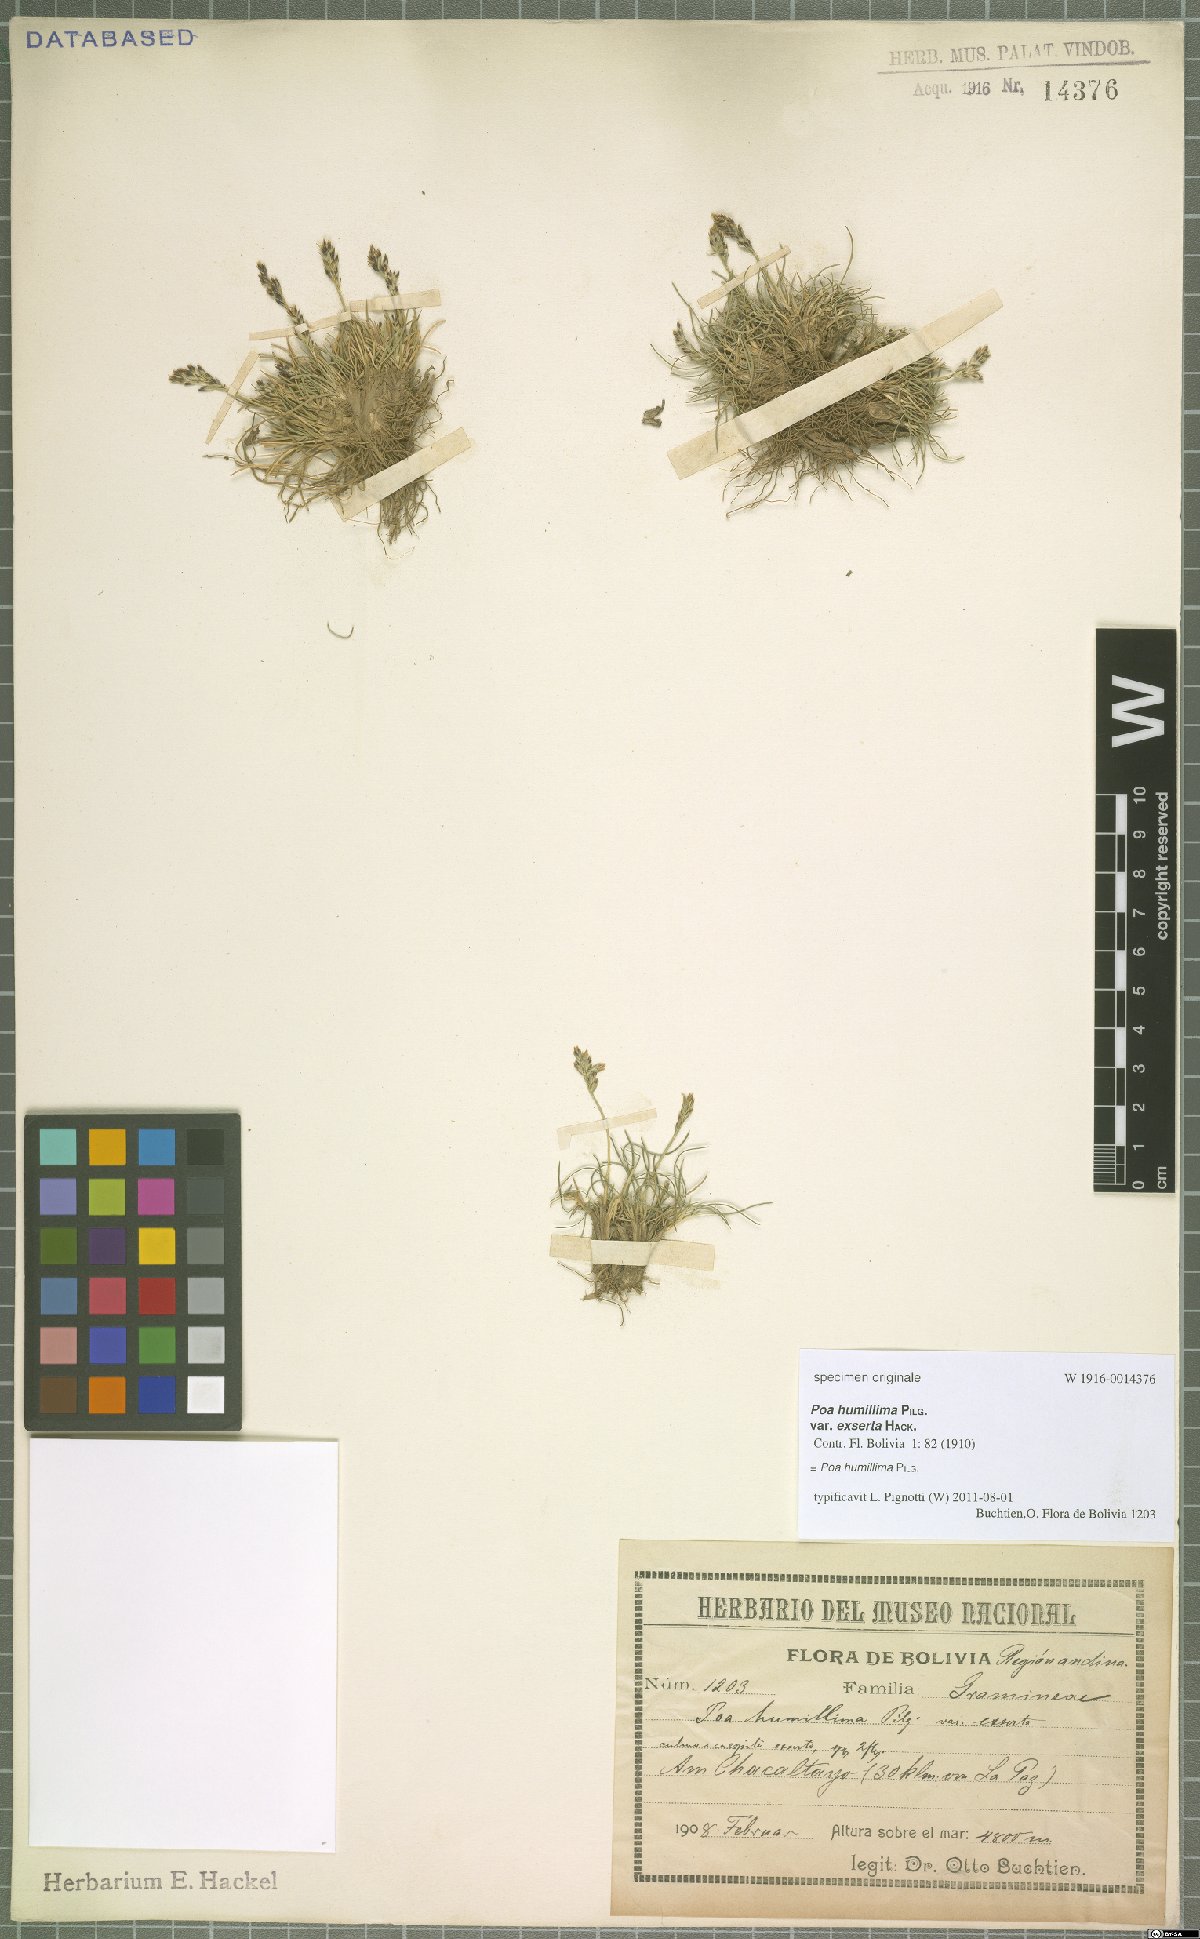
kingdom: Plantae
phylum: Tracheophyta
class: Liliopsida
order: Poales
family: Poaceae
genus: Poa
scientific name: Poa humillima
